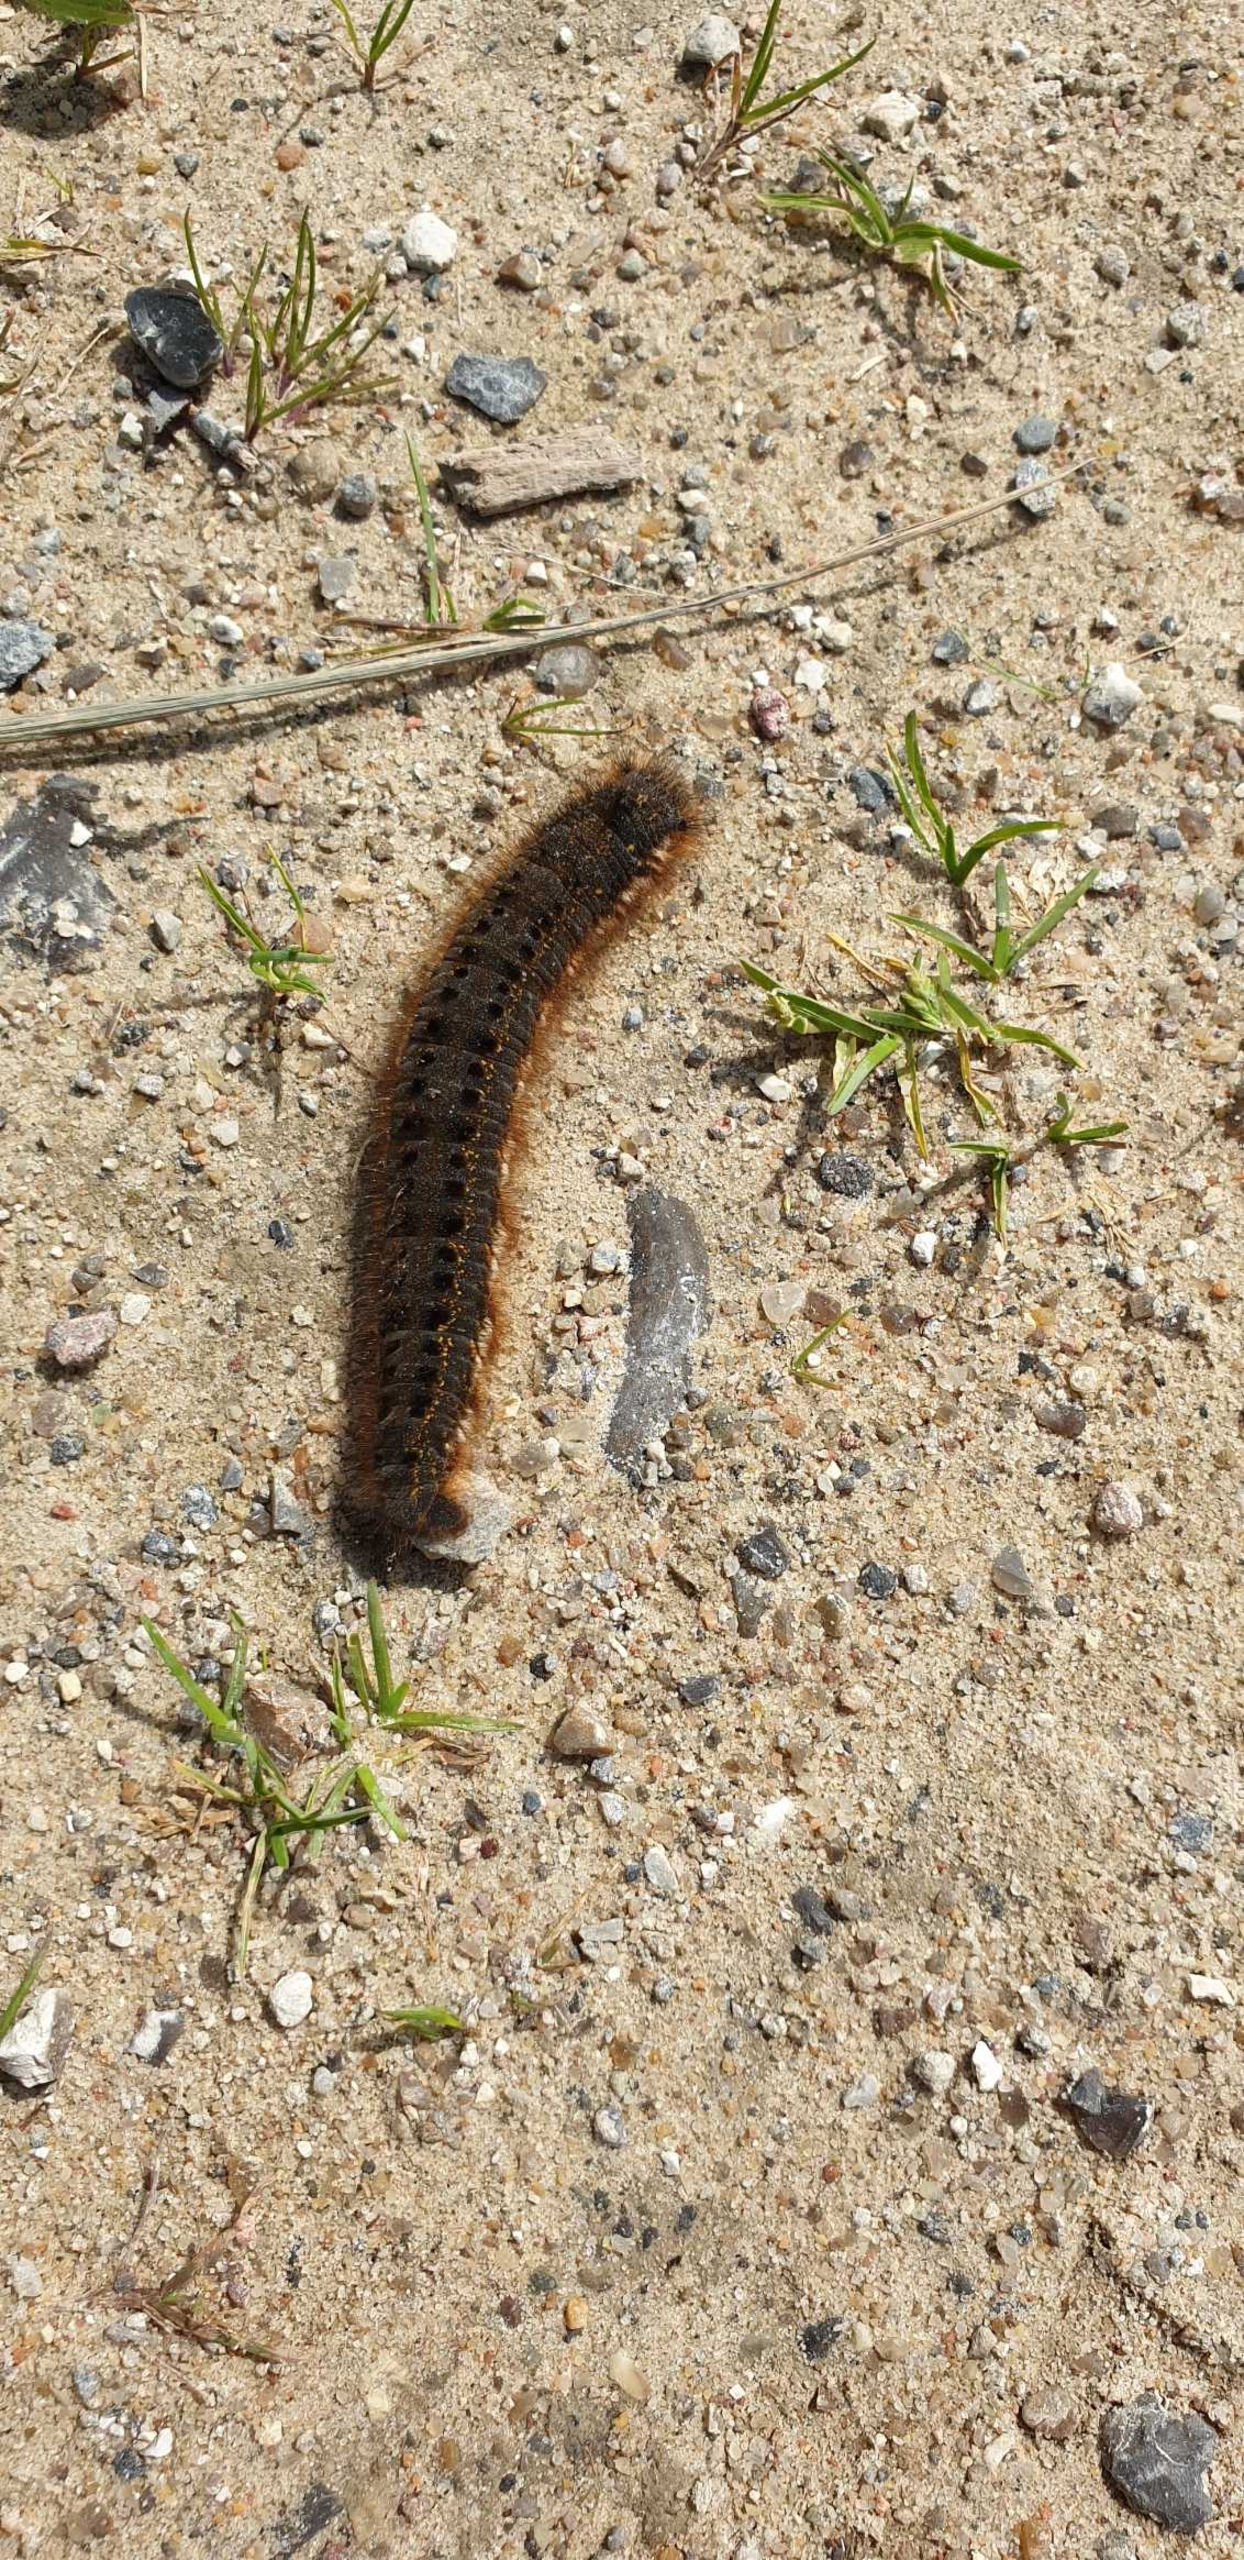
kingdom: Animalia
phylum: Arthropoda
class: Insecta
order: Lepidoptera
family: Lasiocampidae
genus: Euthrix
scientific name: Euthrix potatoria
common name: Græsspinder
